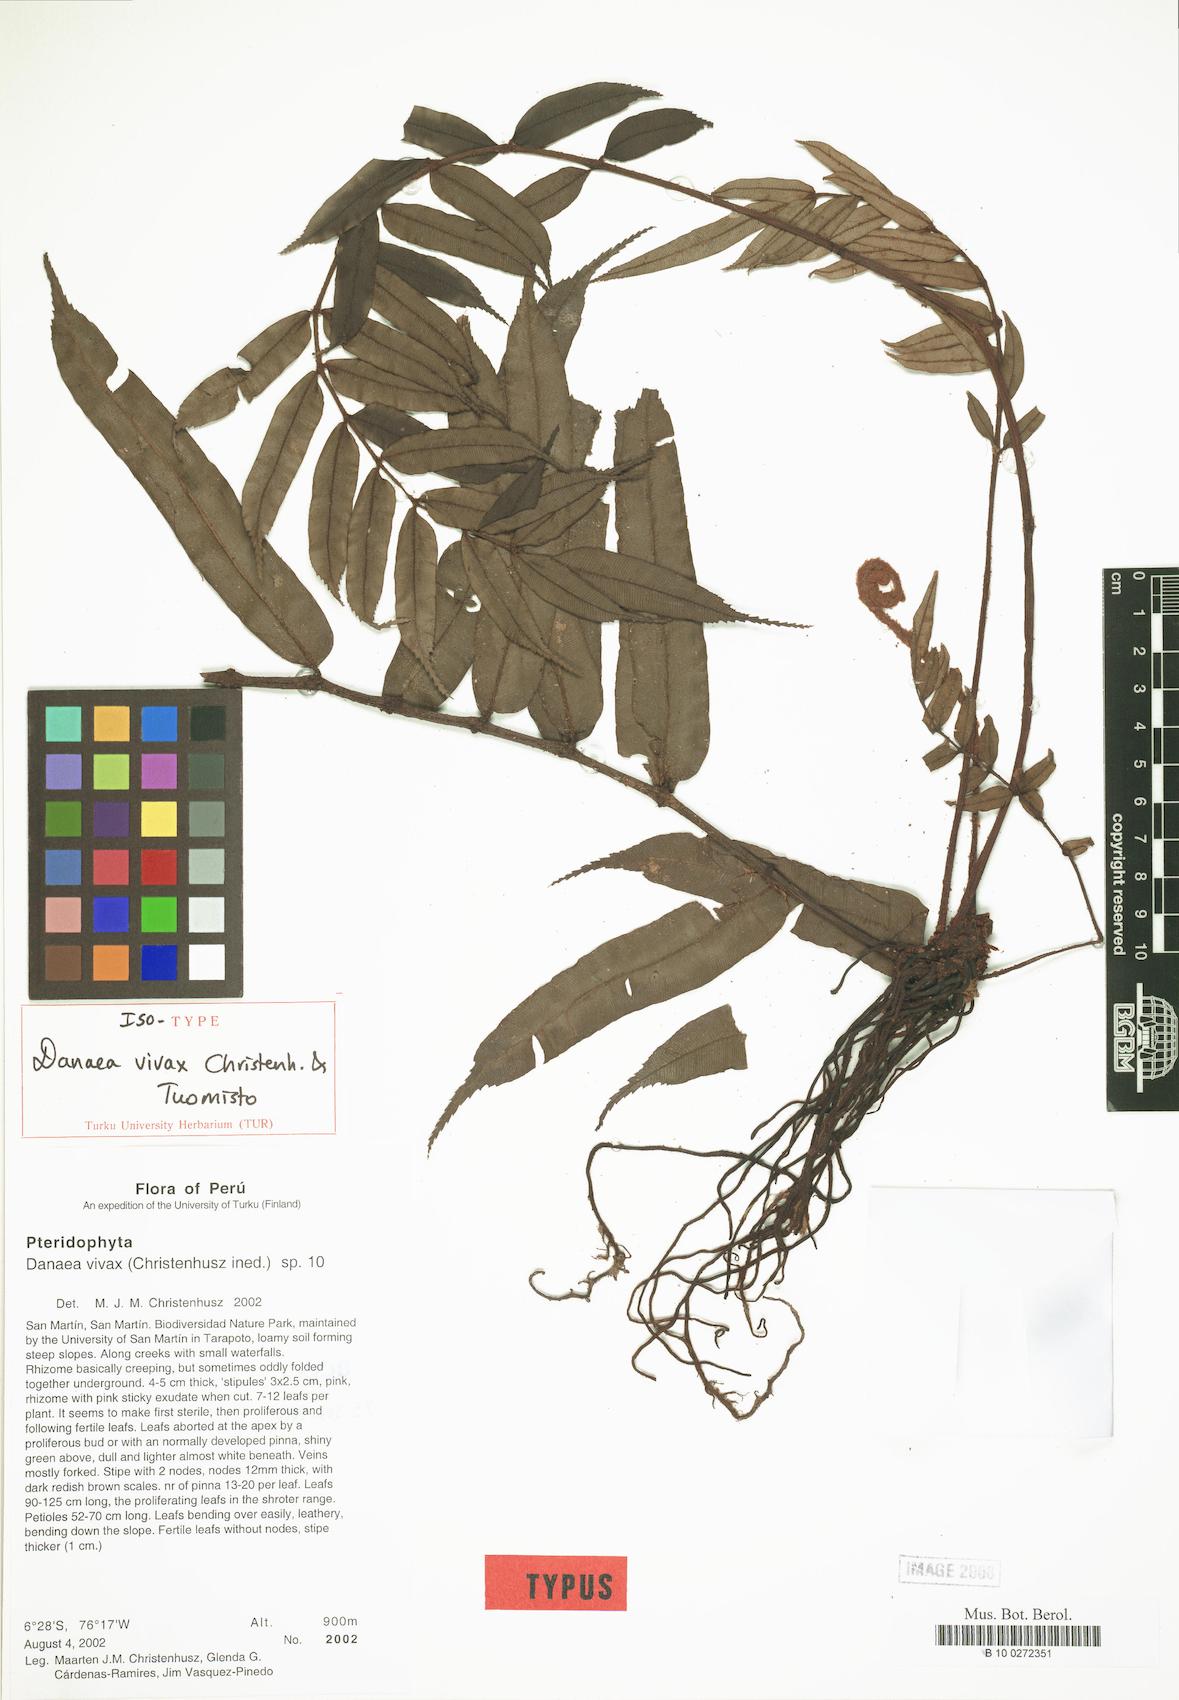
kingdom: Plantae
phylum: Tracheophyta
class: Polypodiopsida
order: Marattiales
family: Marattiaceae
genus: Danaea
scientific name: Danaea vivax
